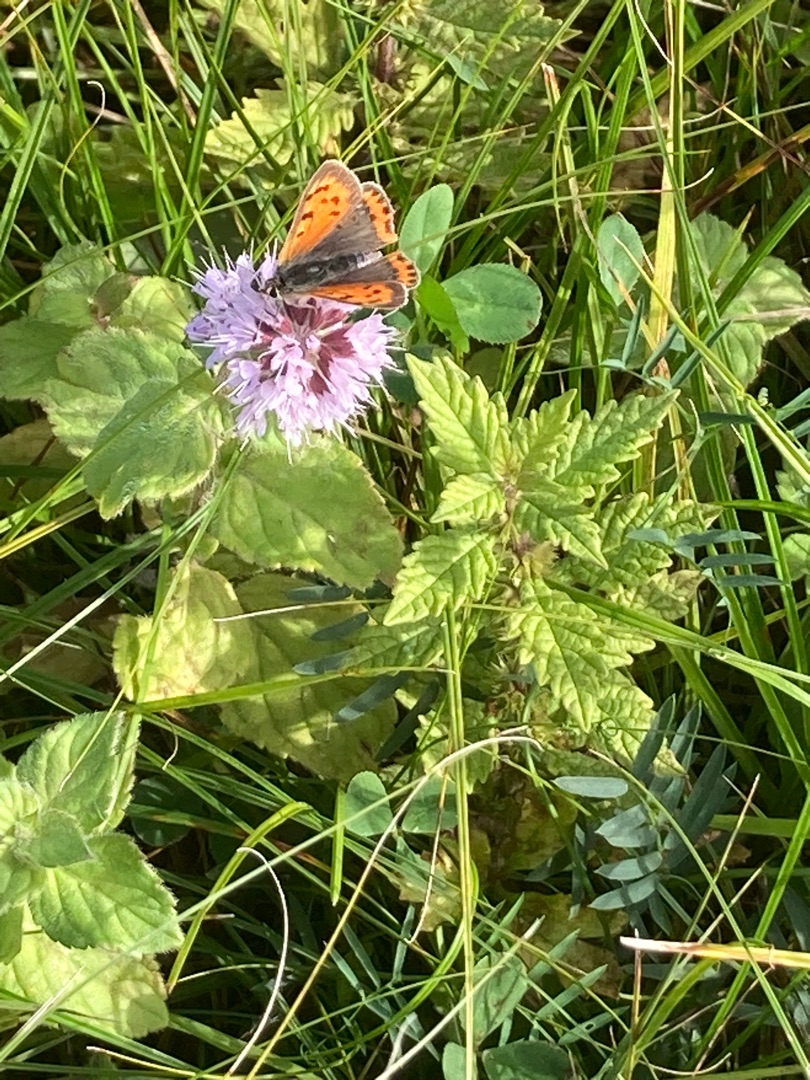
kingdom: Plantae
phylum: Tracheophyta
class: Magnoliopsida
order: Lamiales
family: Lamiaceae
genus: Mentha
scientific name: Mentha aquatica
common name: Vand-mynte
